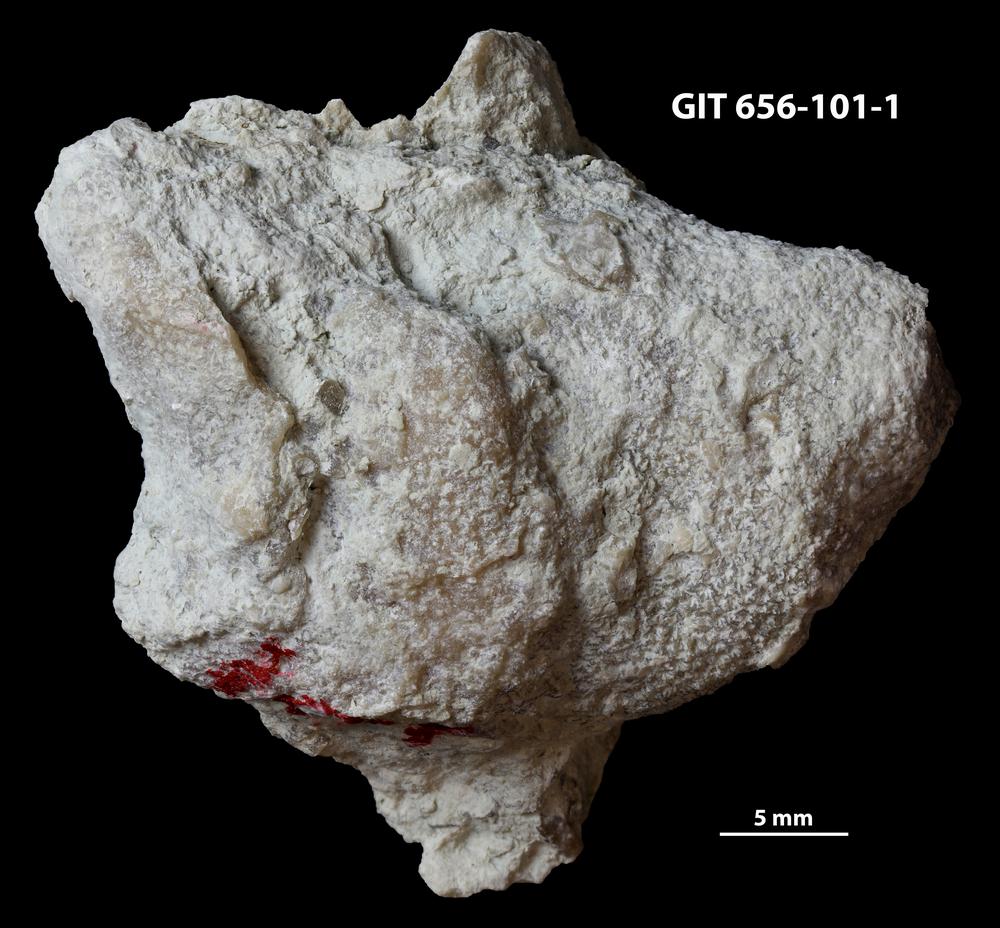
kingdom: Animalia
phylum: Cnidaria
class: Anthozoa
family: Theciidae
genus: Thecia
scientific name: Thecia
